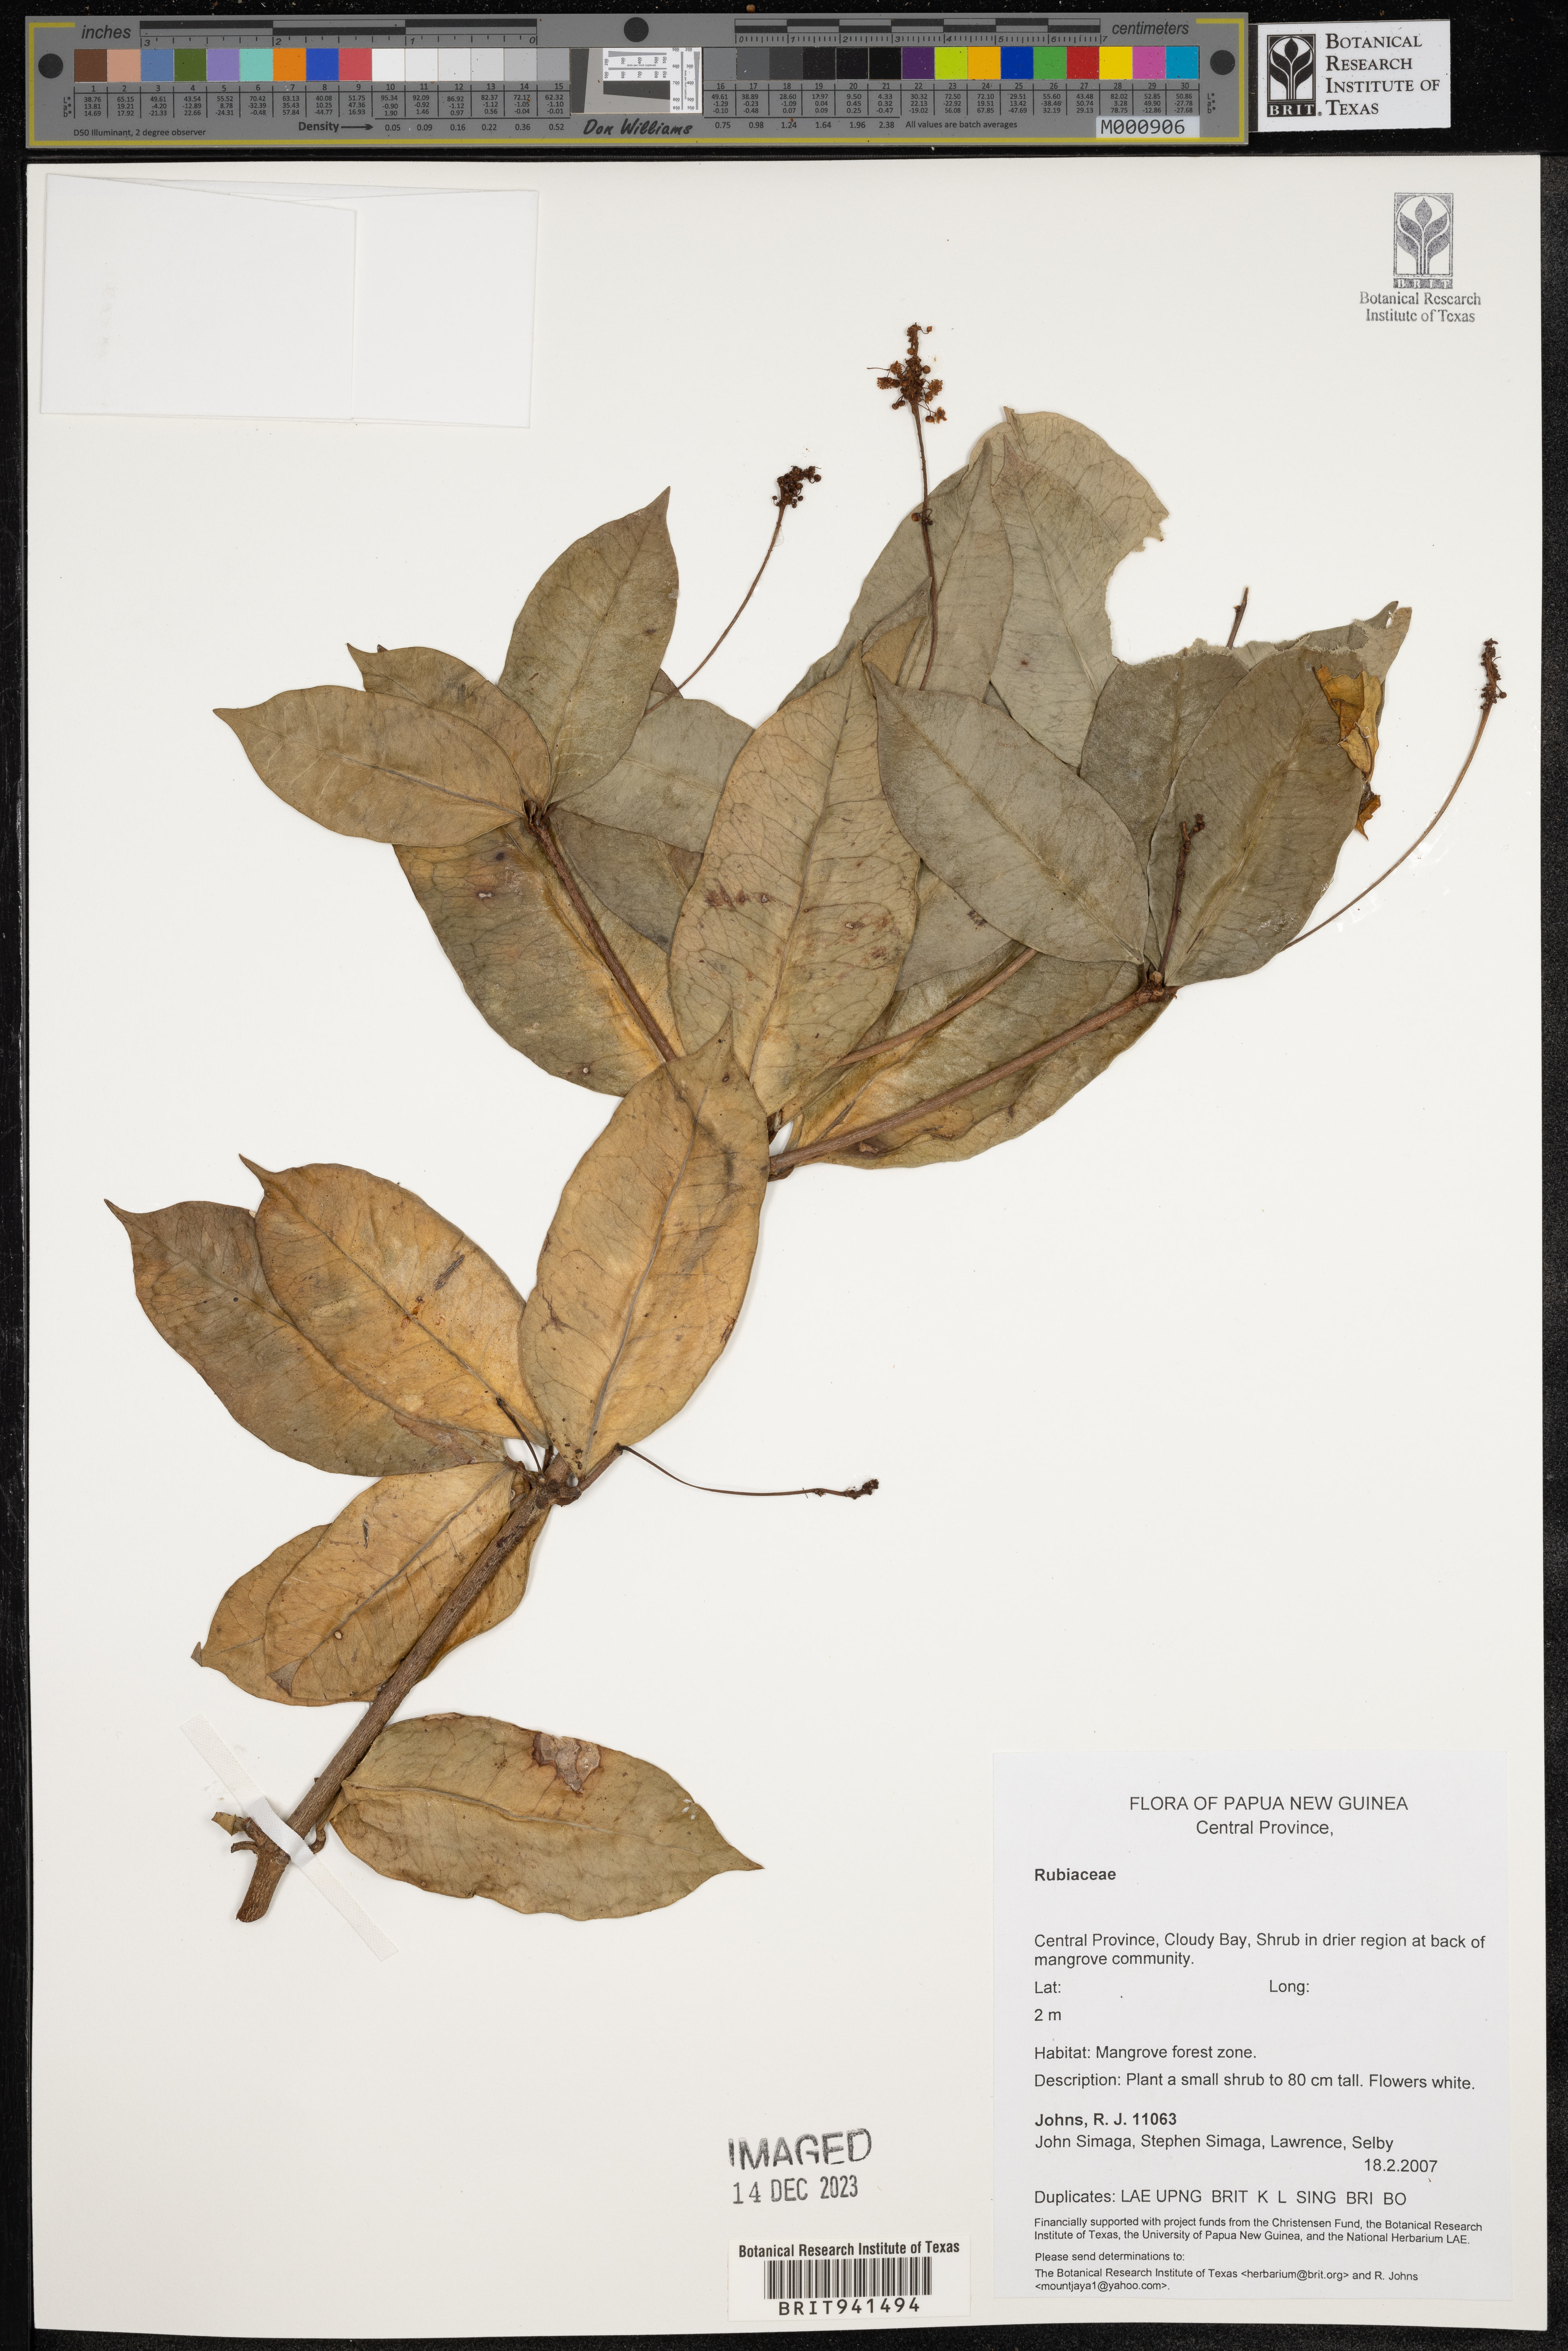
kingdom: Plantae
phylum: Tracheophyta
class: Magnoliopsida
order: Gentianales
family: Rubiaceae
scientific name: Rubiaceae
